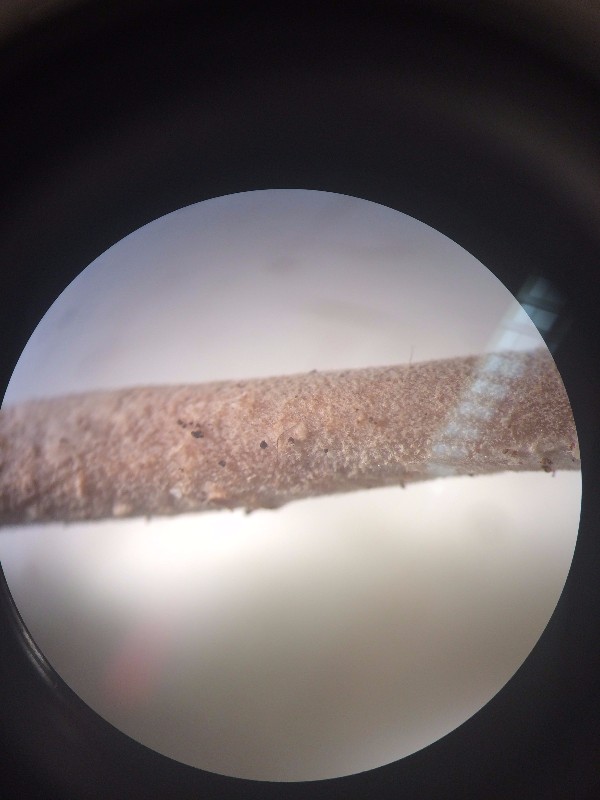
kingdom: Fungi
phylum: Basidiomycota
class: Agaricomycetes
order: Agaricales
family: Marasmiaceae
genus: Baeospora
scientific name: Baeospora myosura
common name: koglebruskhat
